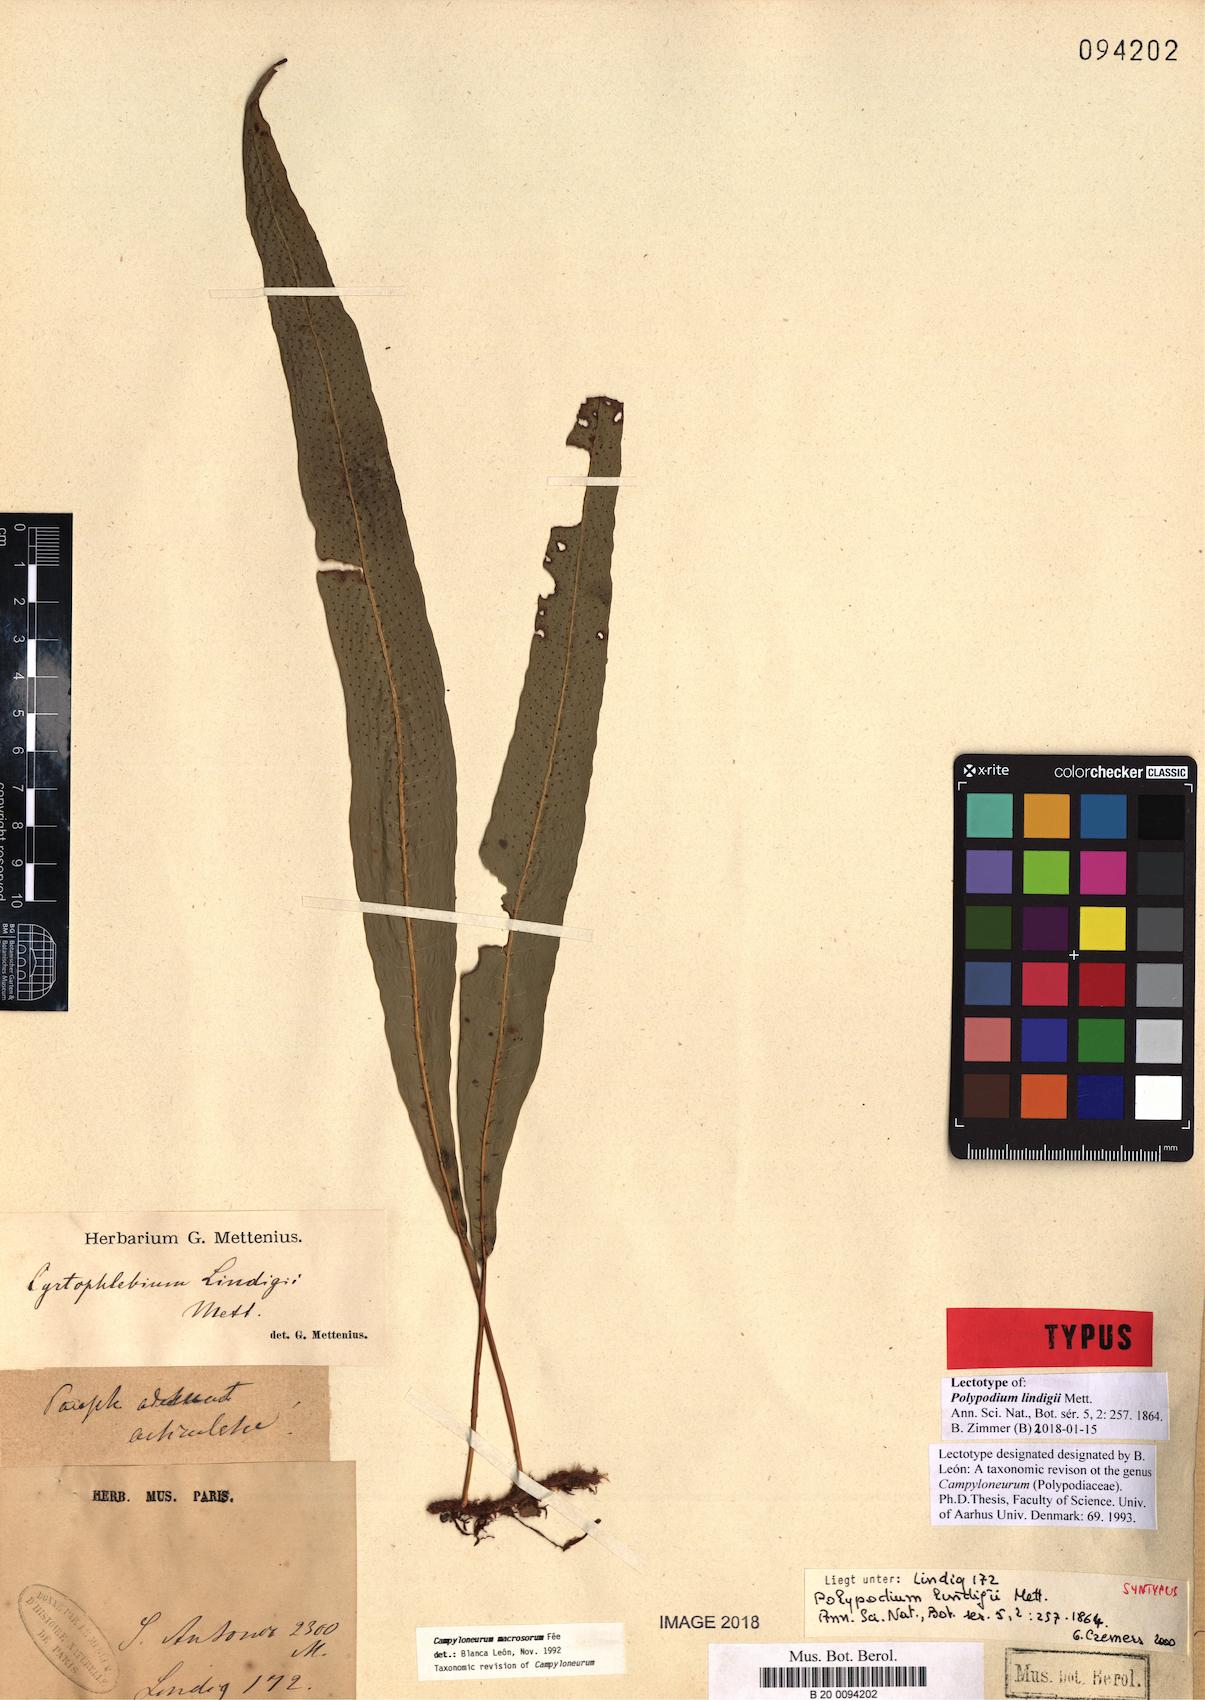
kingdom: Plantae
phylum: Tracheophyta
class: Polypodiopsida
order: Polypodiales
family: Polypodiaceae
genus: Campyloneurum
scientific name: Campyloneurum macrosorum
